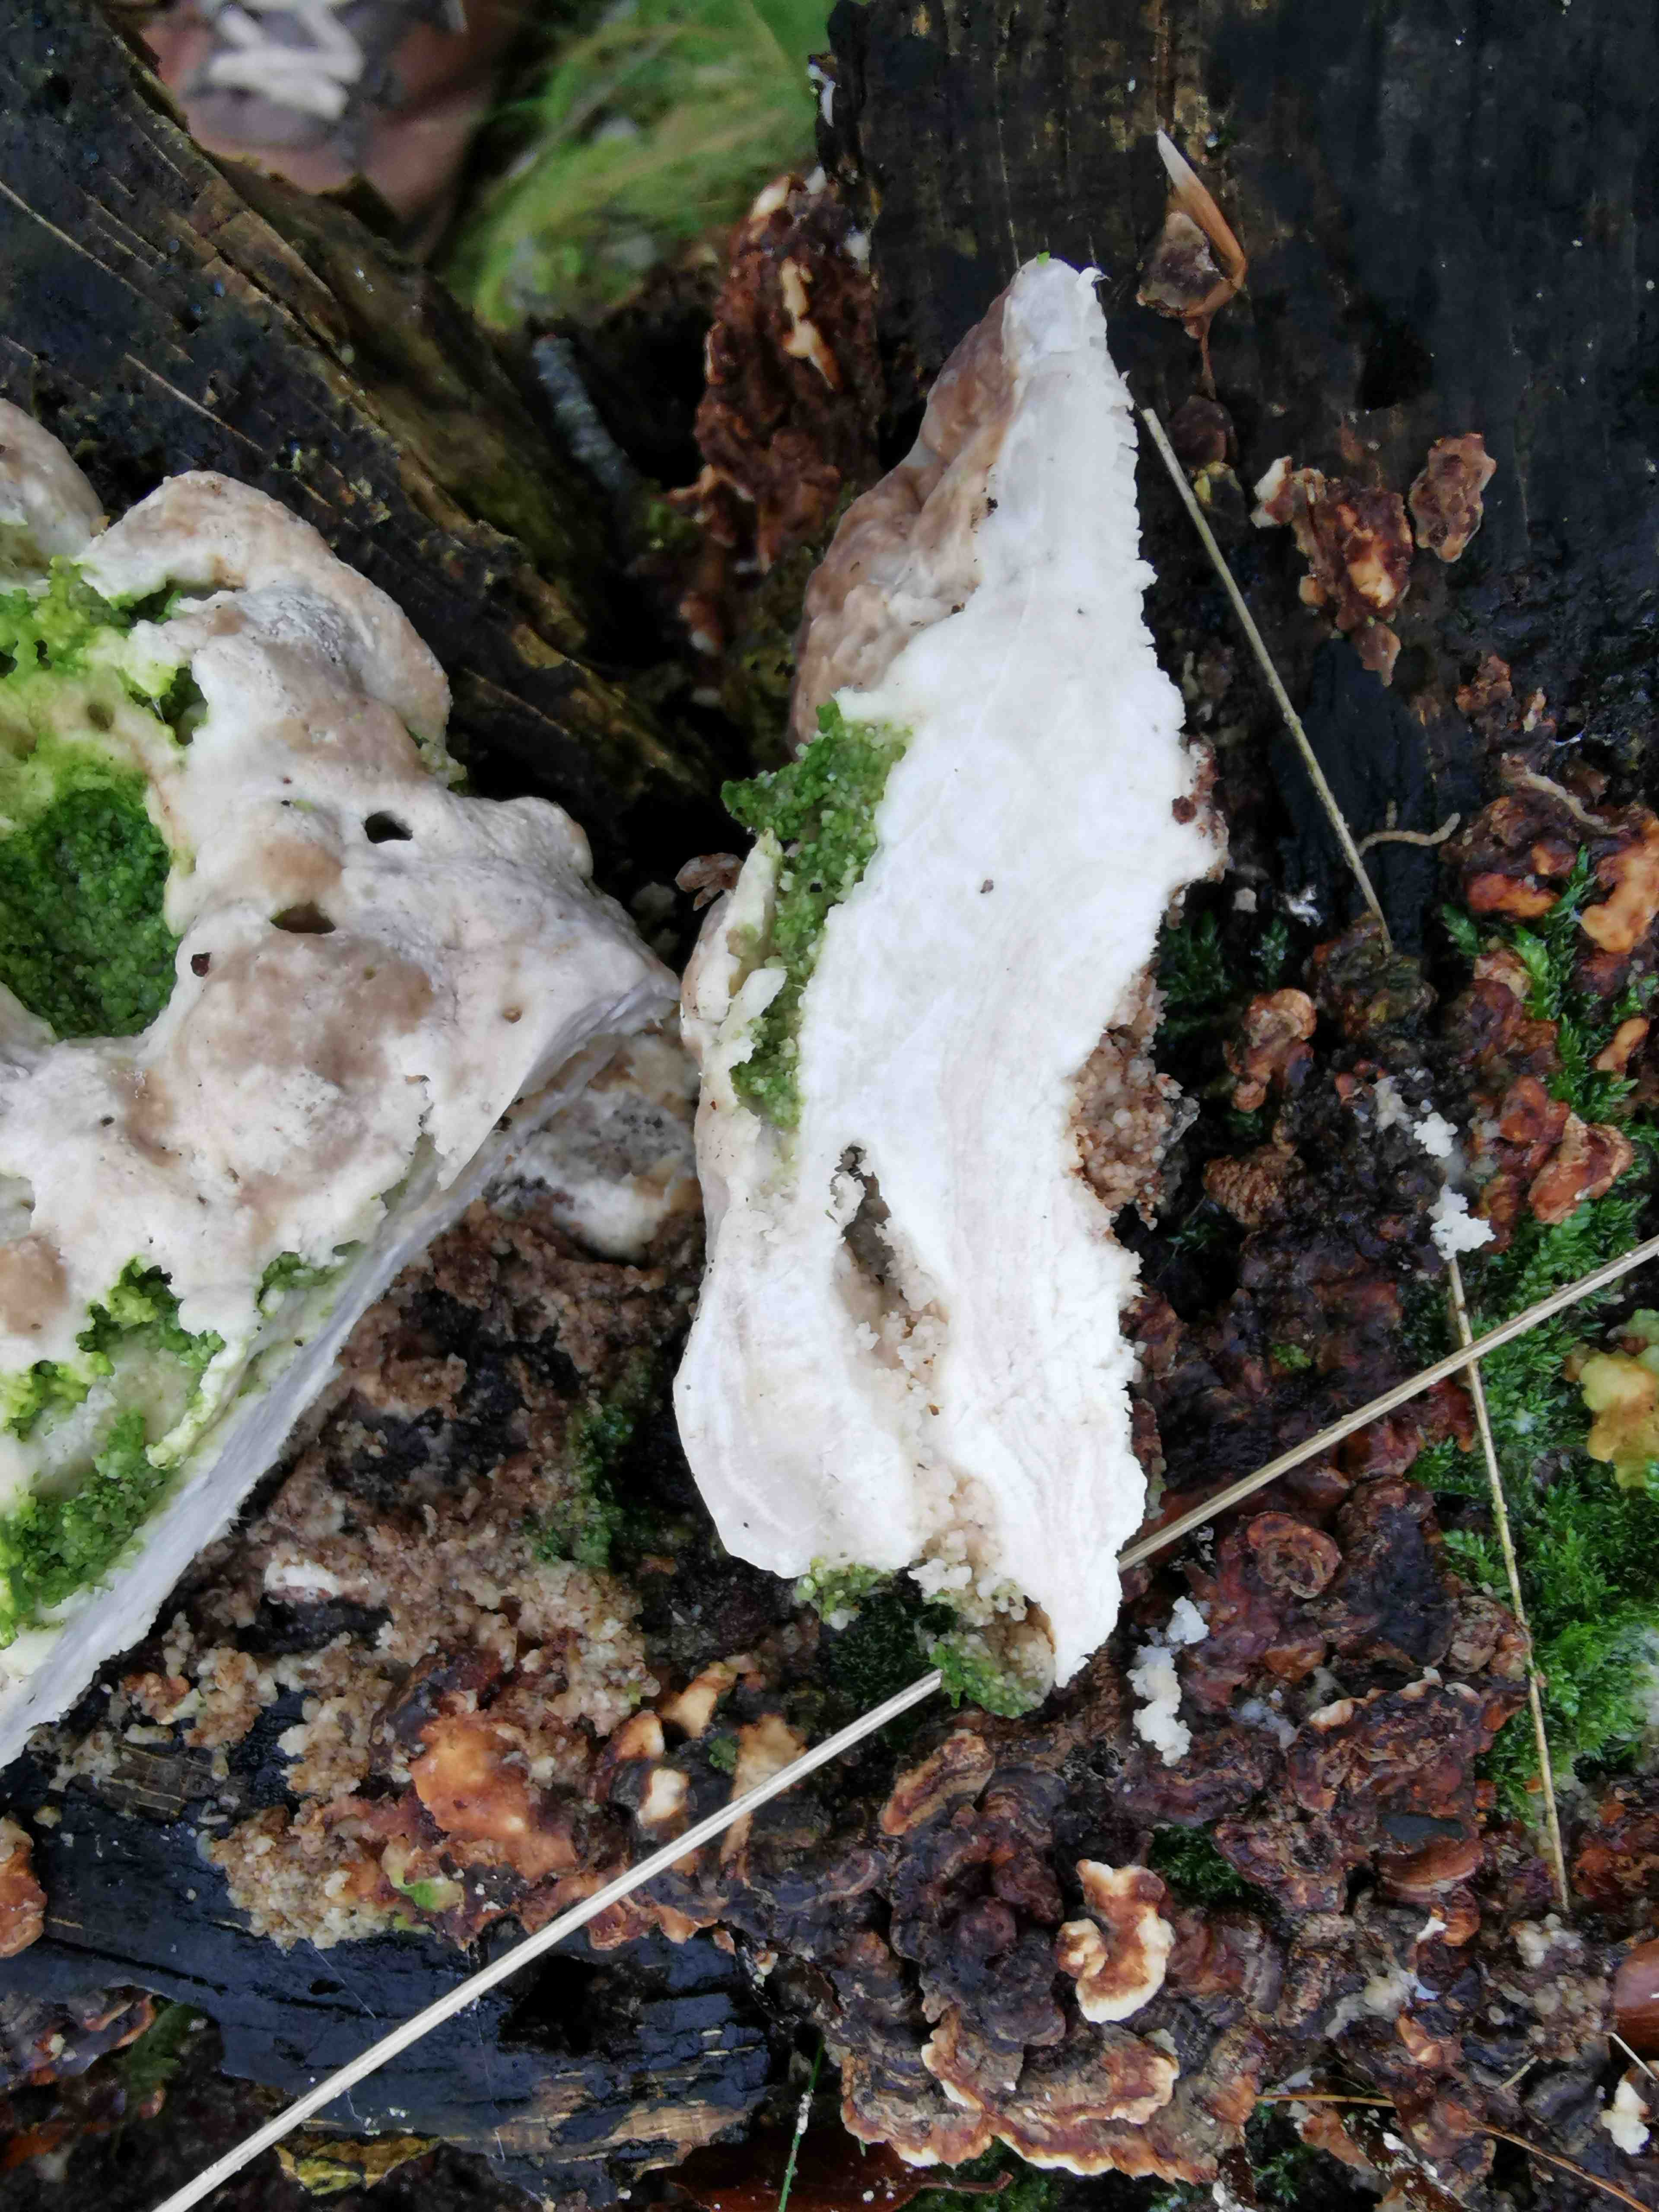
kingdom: Fungi
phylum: Basidiomycota
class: Agaricomycetes
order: Polyporales
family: Polyporaceae
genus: Trametes
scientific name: Trametes gibbosa
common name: puklet læderporesvamp
